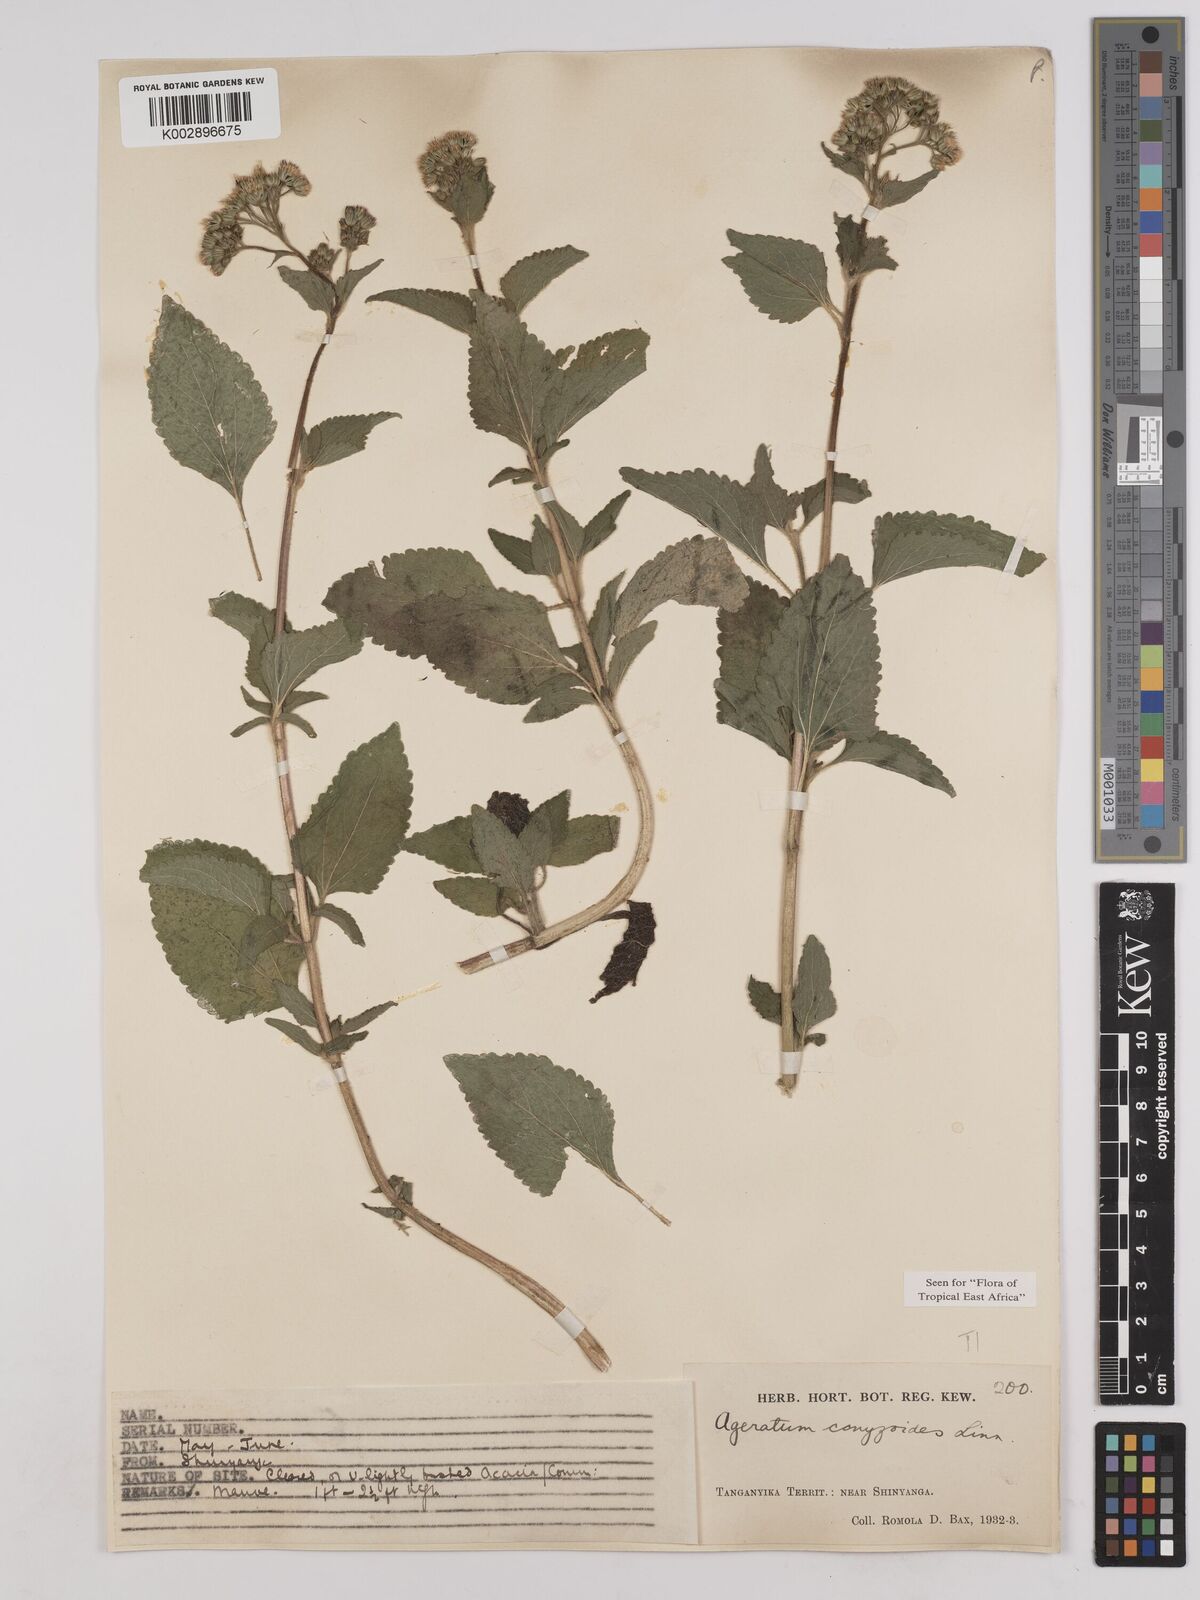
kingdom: Plantae
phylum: Tracheophyta
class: Magnoliopsida
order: Asterales
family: Asteraceae
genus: Ageratum
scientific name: Ageratum conyzoides
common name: Tropical whiteweed
